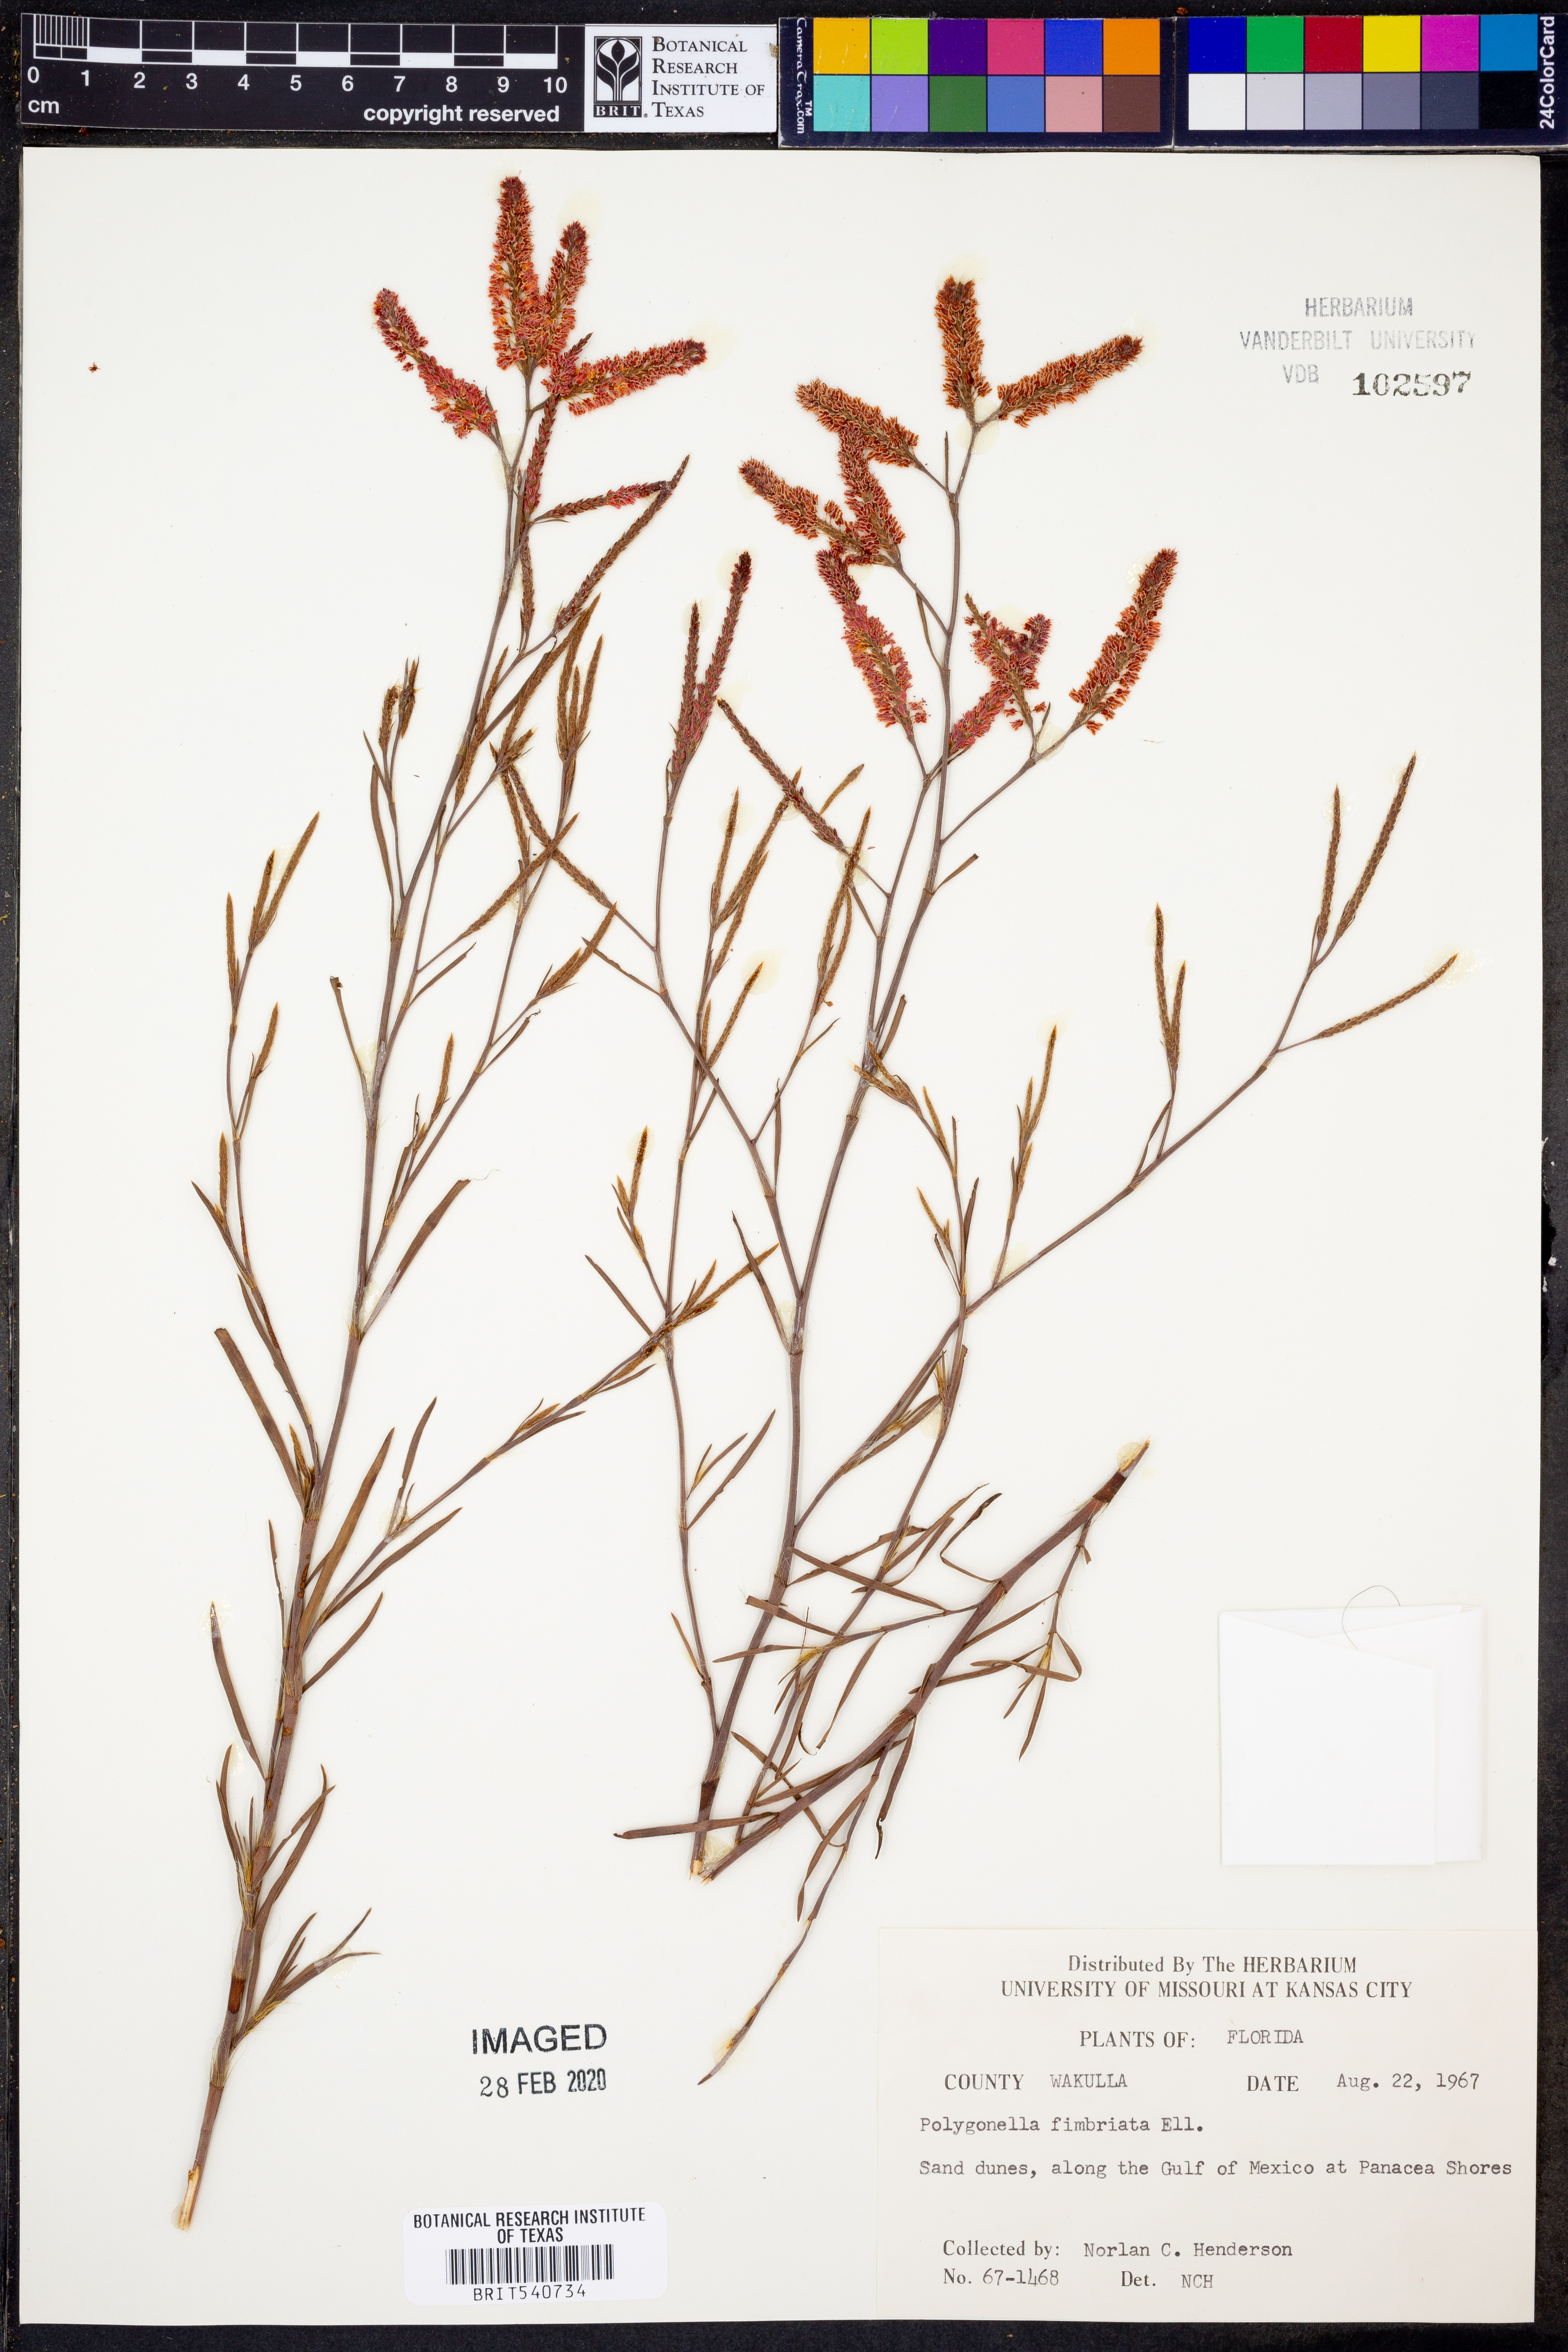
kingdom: Plantae
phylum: Tracheophyta
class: Magnoliopsida
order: Caryophyllales
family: Polygonaceae
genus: Polygonella
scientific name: Polygonella fimbriata
